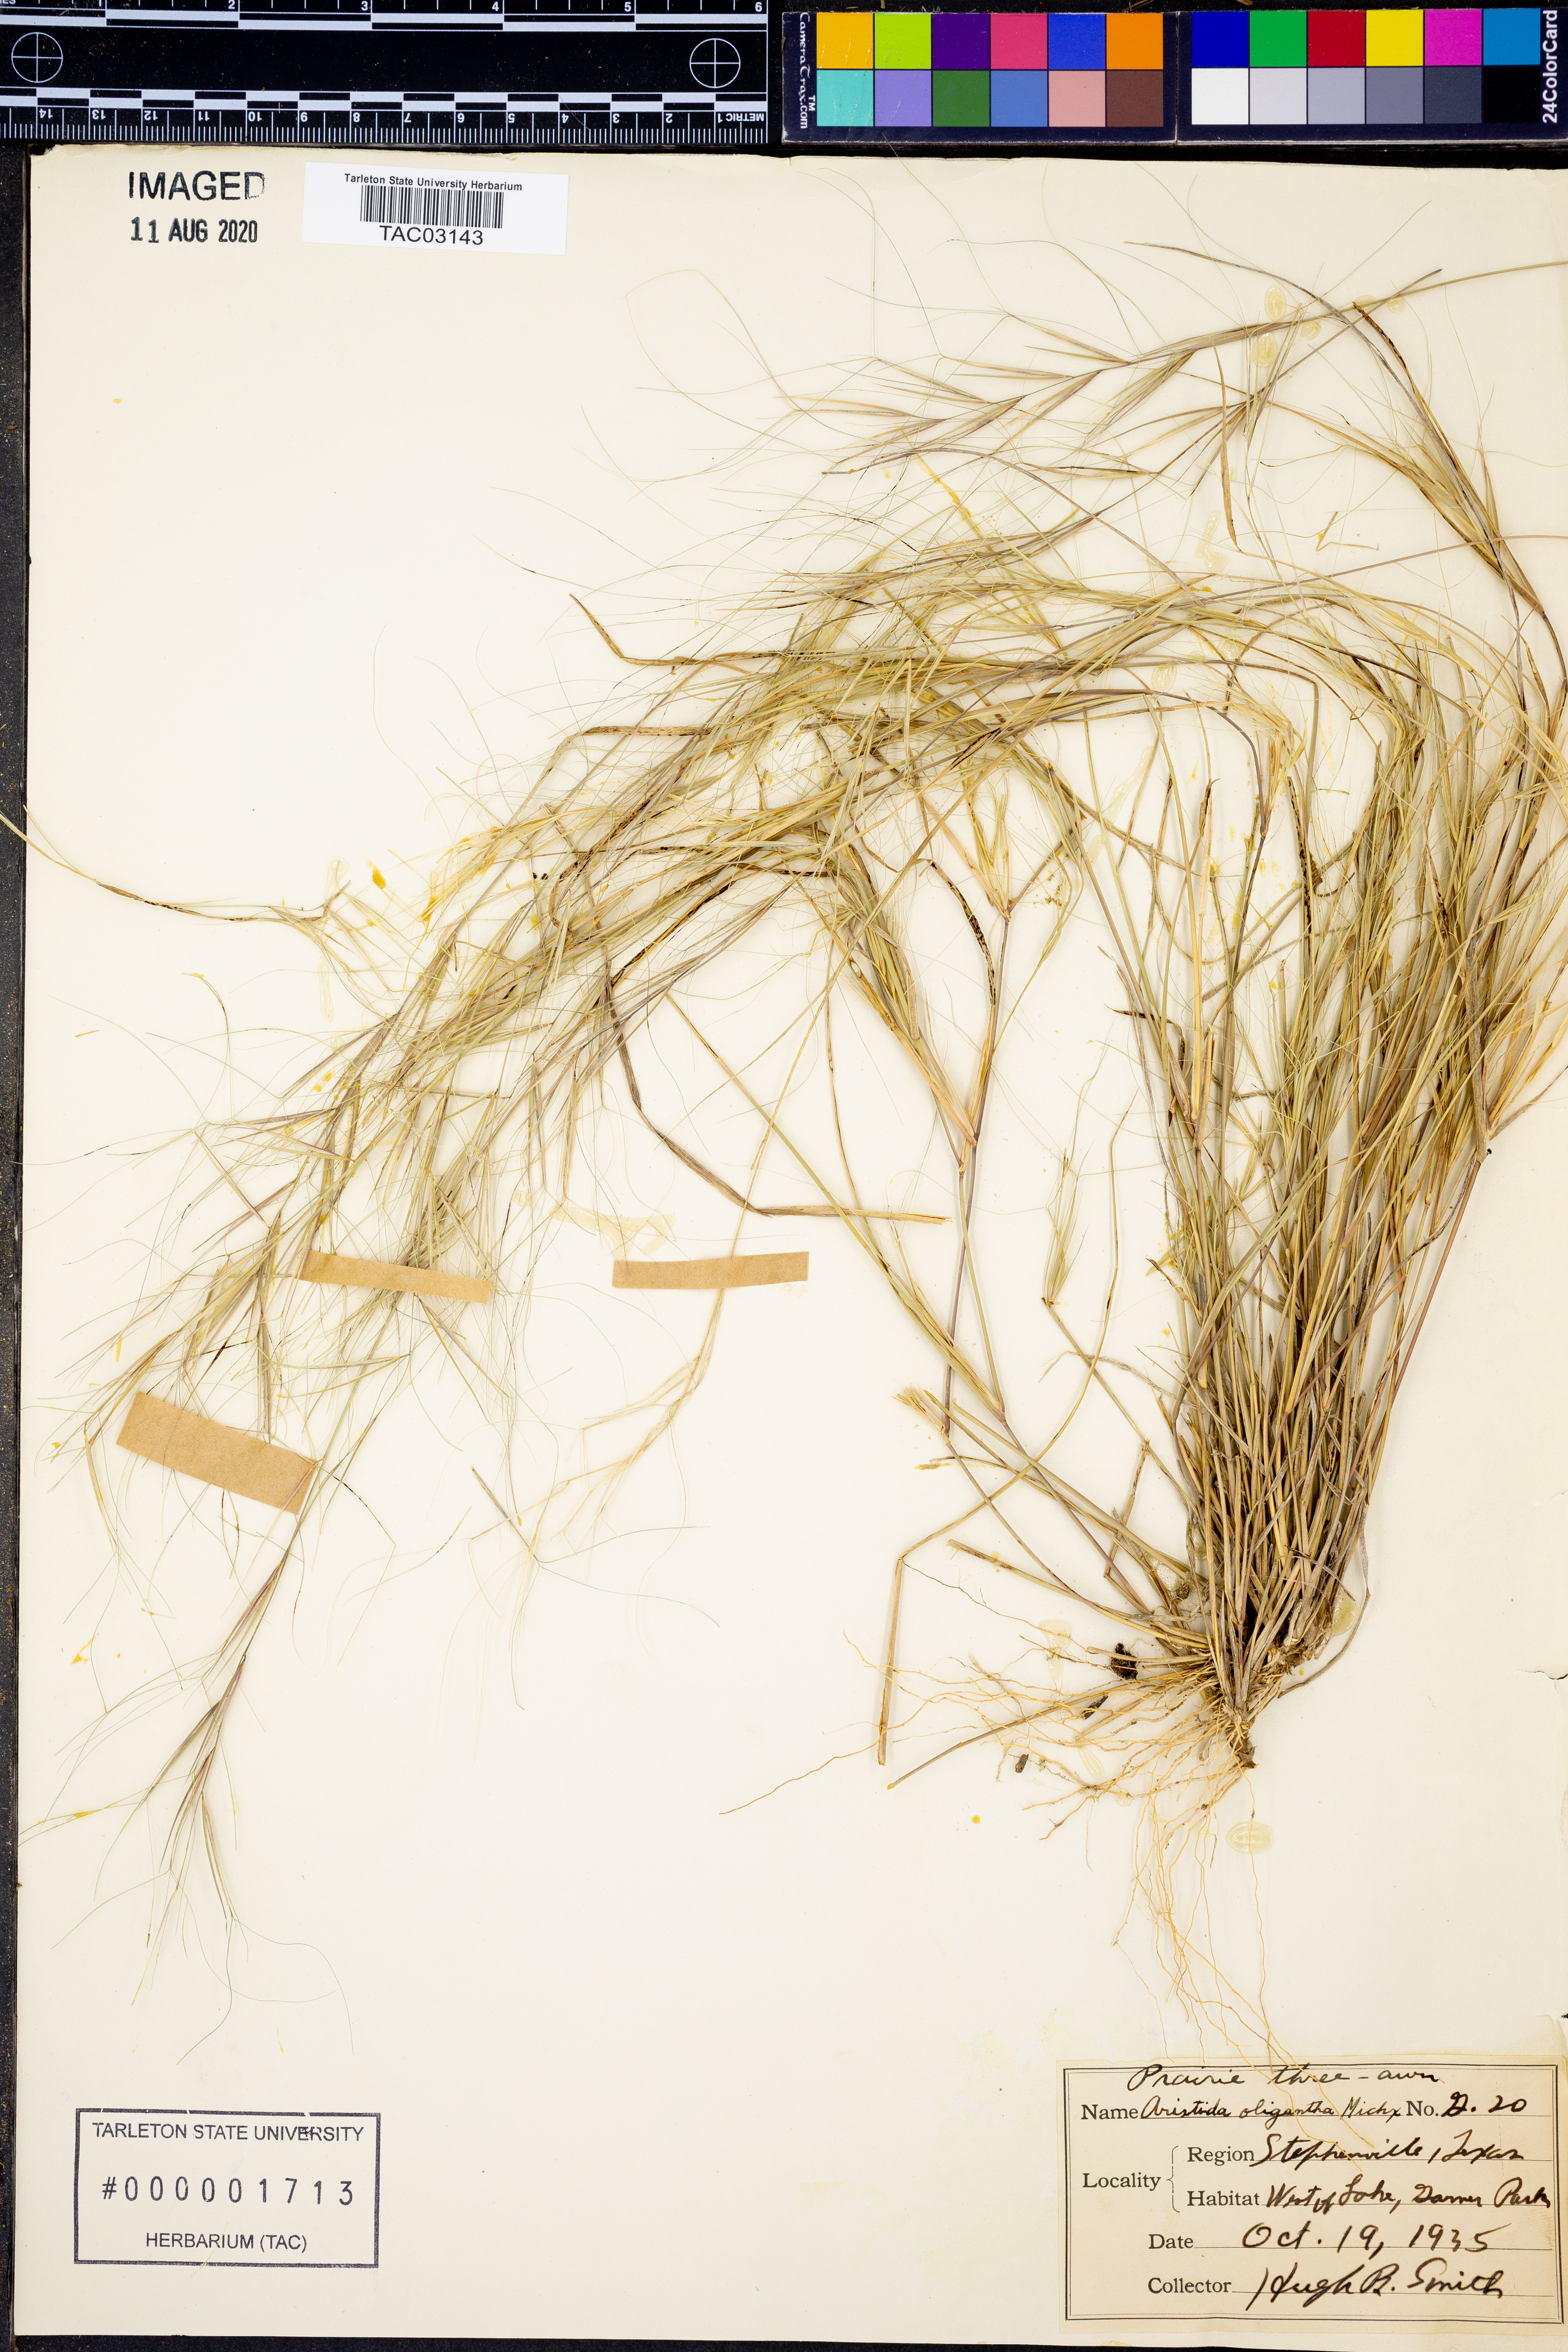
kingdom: Plantae
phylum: Tracheophyta
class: Liliopsida
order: Poales
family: Poaceae
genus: Aristida
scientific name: Aristida oligantha
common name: Few-flowered aristida
